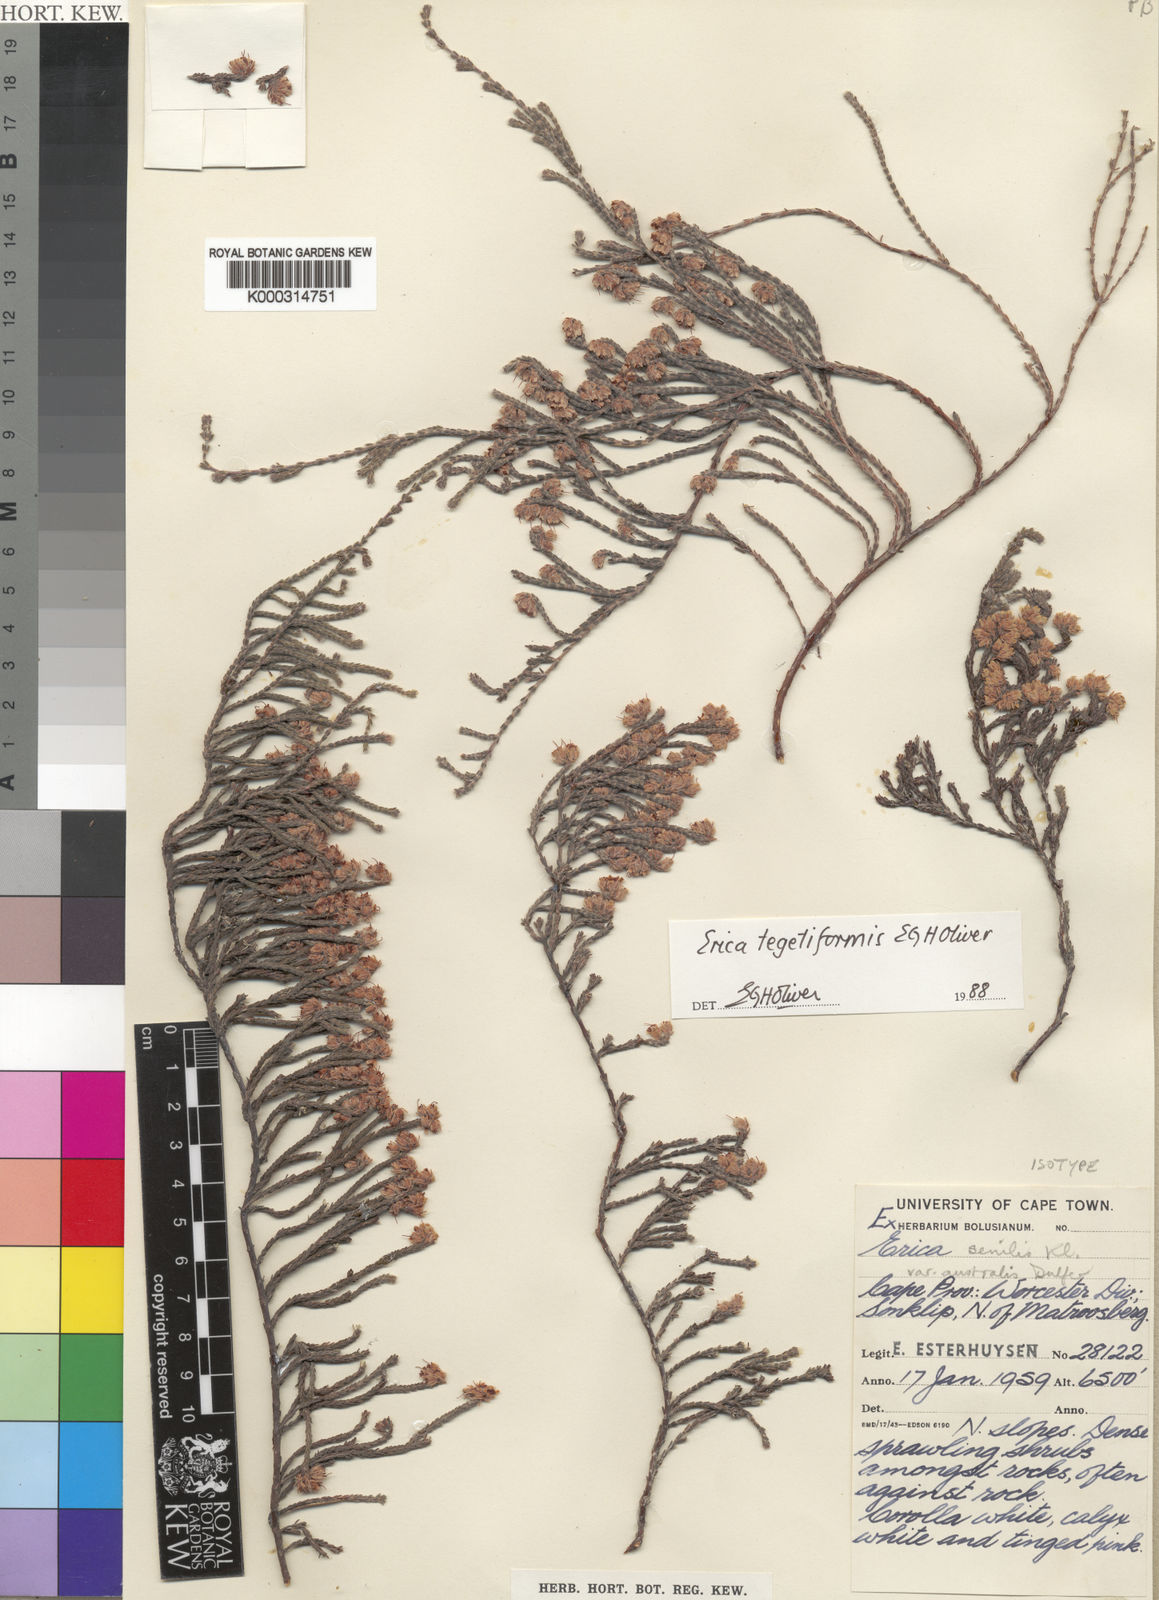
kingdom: Plantae
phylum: Tracheophyta
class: Magnoliopsida
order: Ericales
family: Ericaceae
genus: Erica
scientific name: Erica
